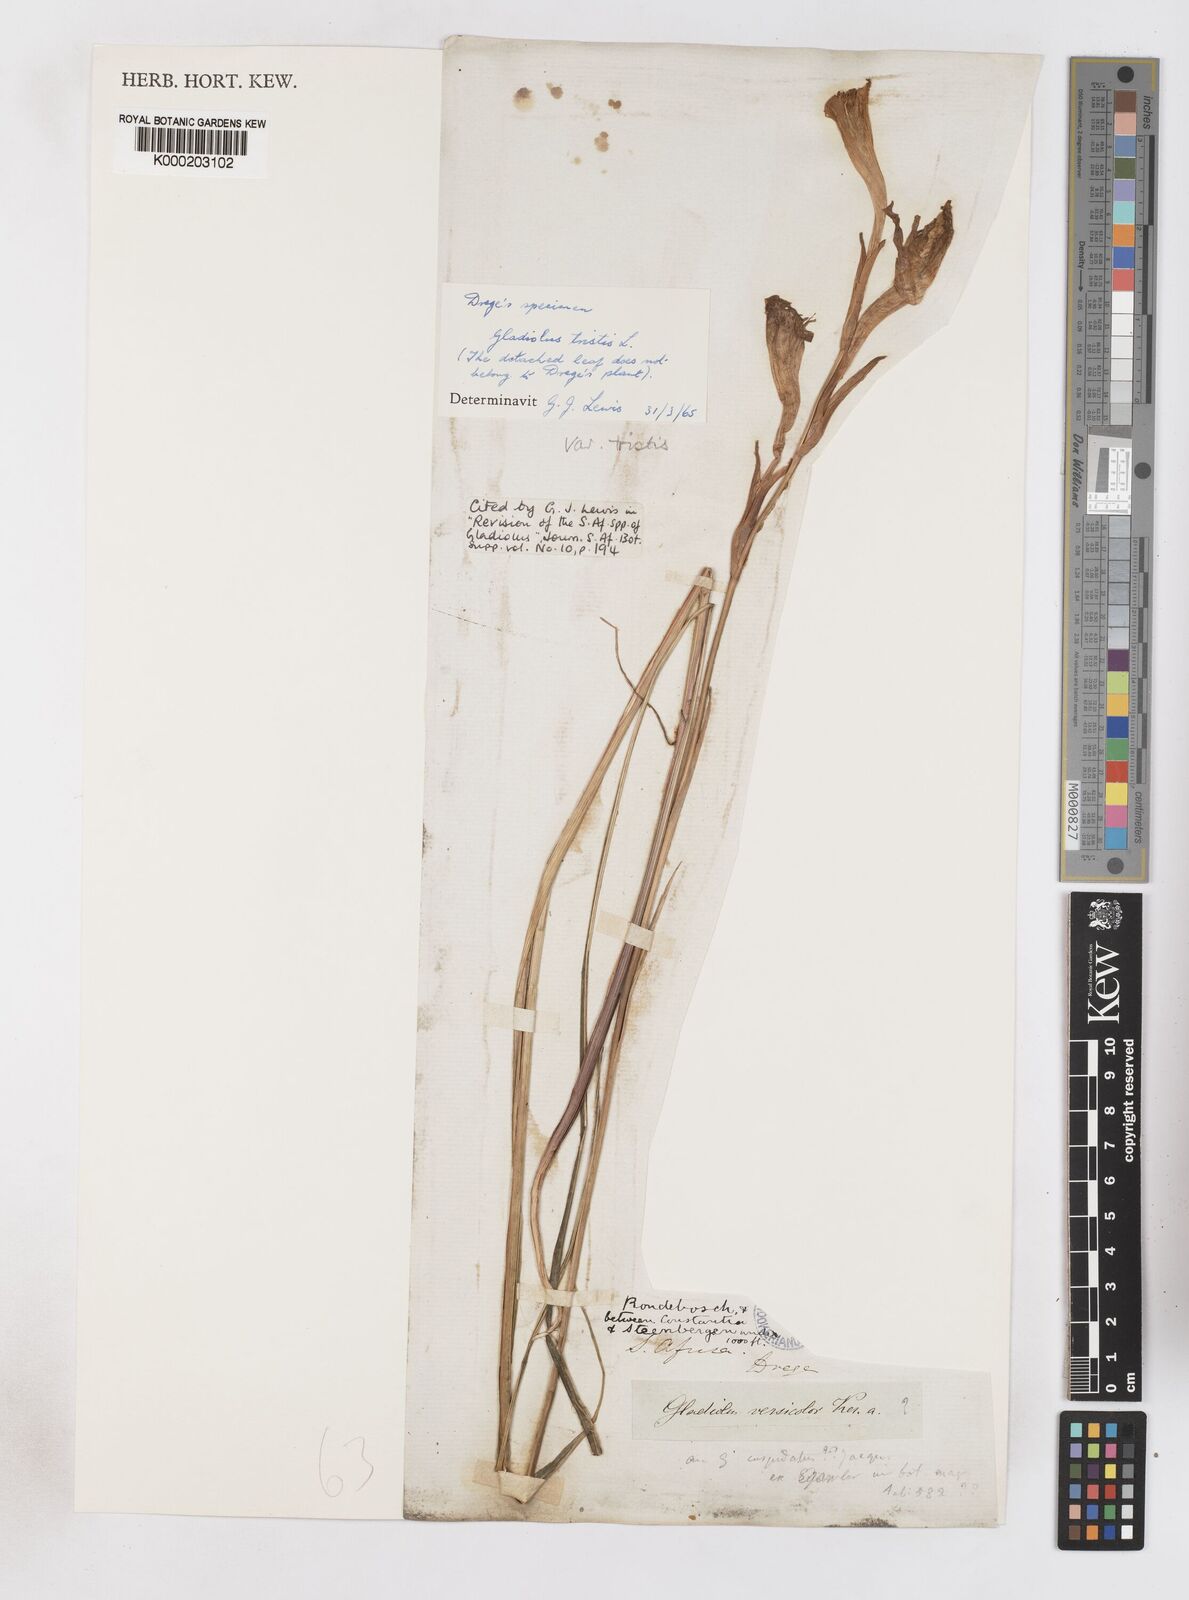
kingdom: Plantae
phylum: Tracheophyta
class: Liliopsida
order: Asparagales
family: Iridaceae
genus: Gladiolus
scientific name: Gladiolus tristis
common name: Ever-flowering gladiolus
